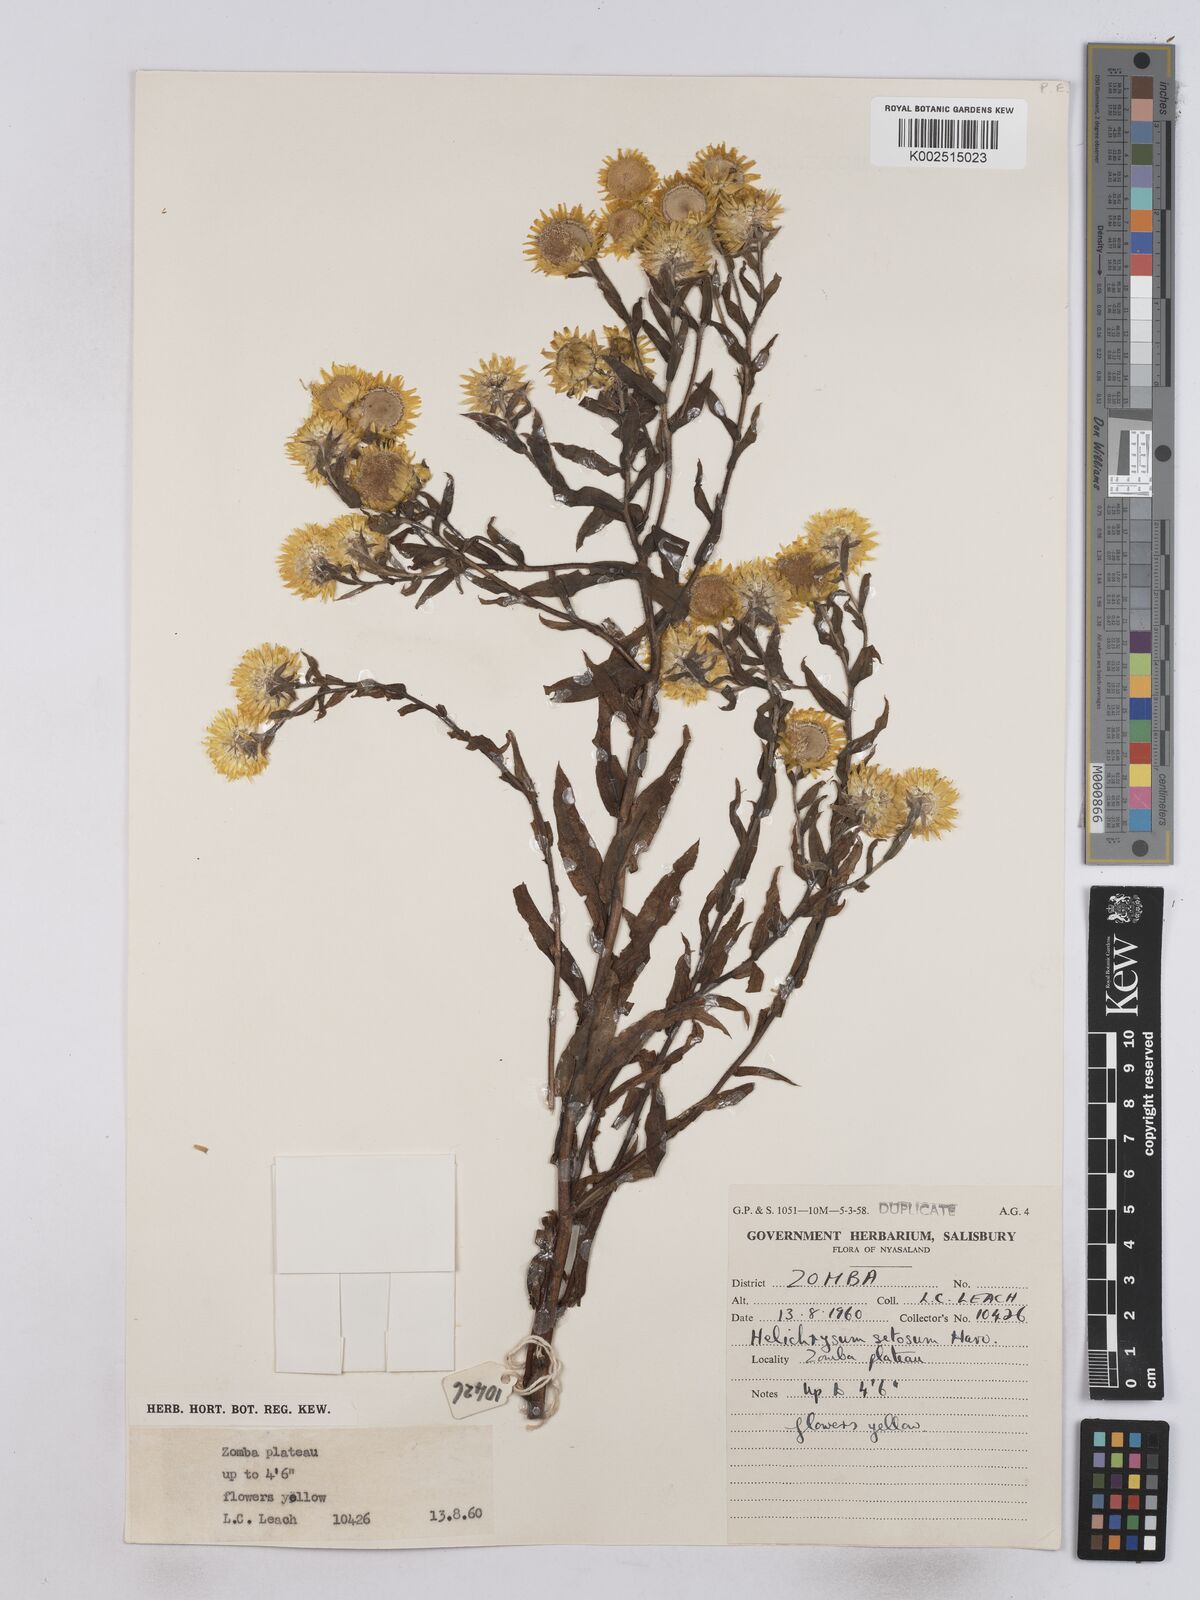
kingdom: Plantae
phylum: Tracheophyta
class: Magnoliopsida
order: Asterales
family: Asteraceae
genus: Helichrysum
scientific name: Helichrysum setosum
